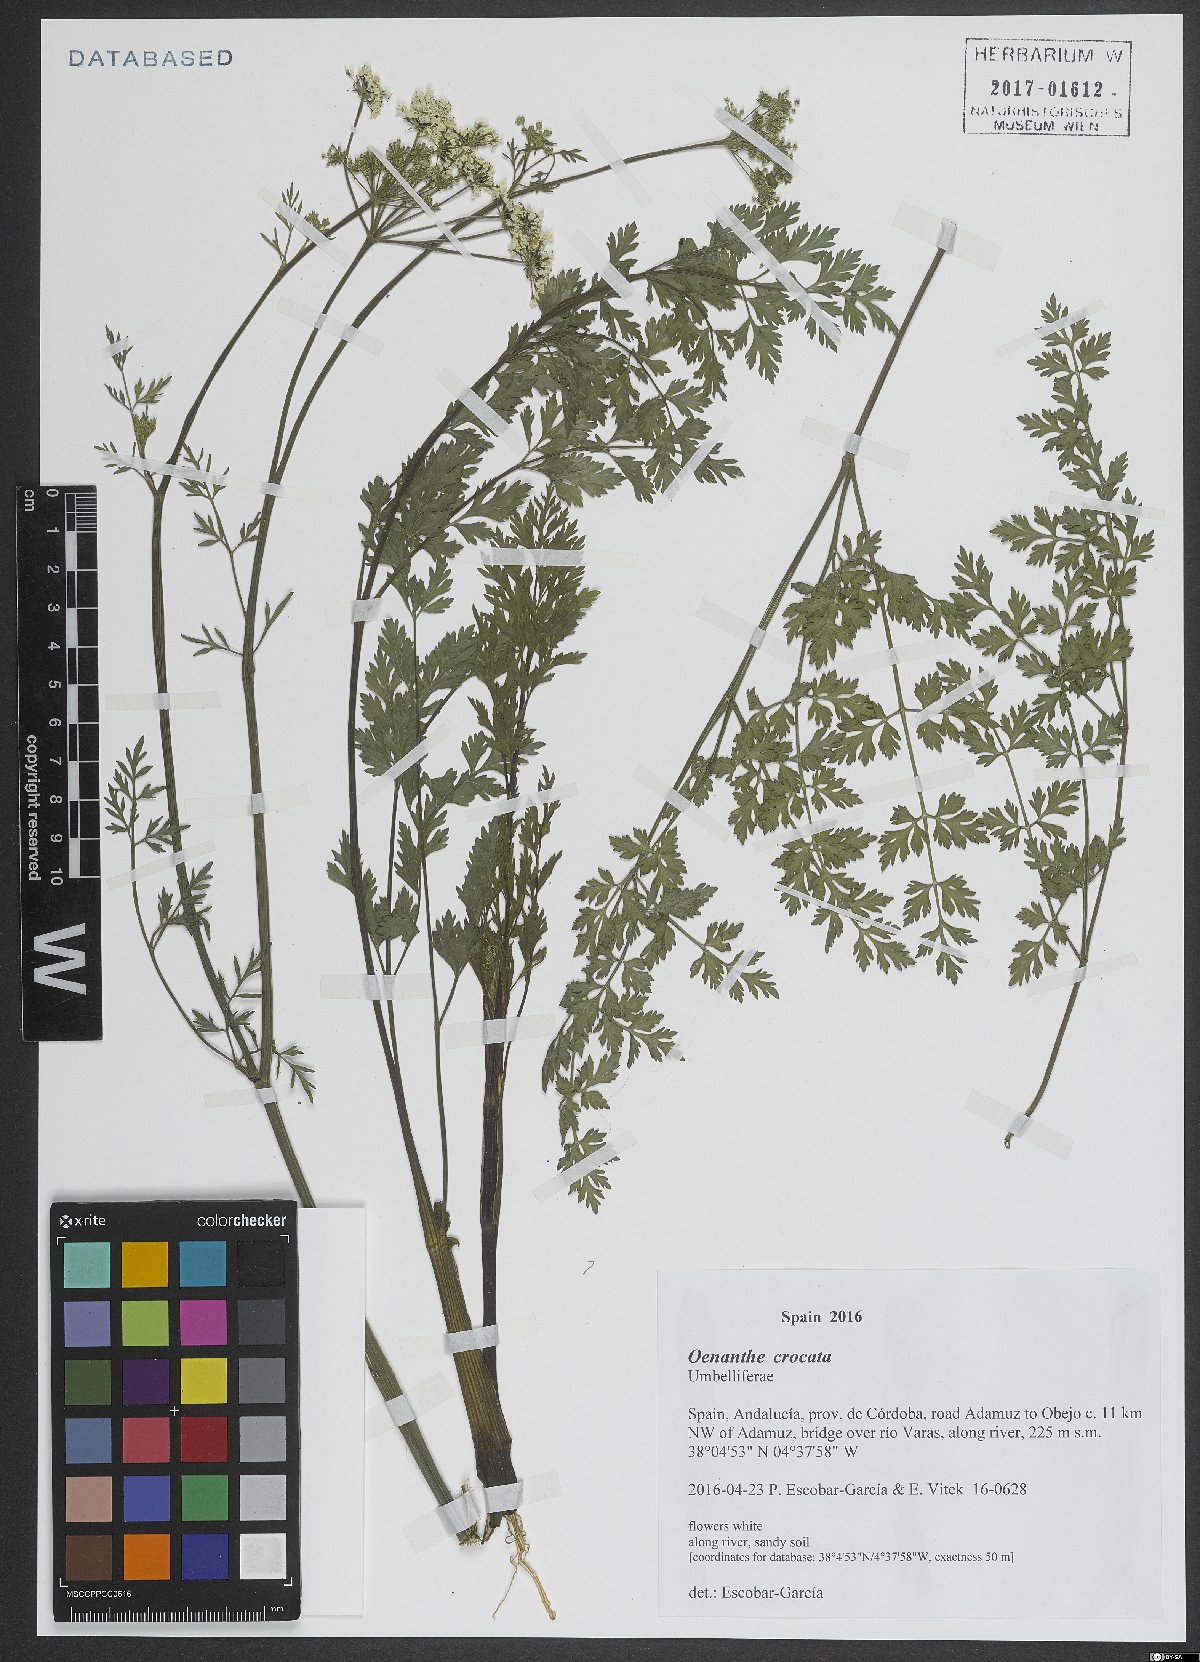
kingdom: Plantae
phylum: Tracheophyta
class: Magnoliopsida
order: Apiales
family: Apiaceae
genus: Oenanthe
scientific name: Oenanthe crocata
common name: Hemlock water-dropwort
